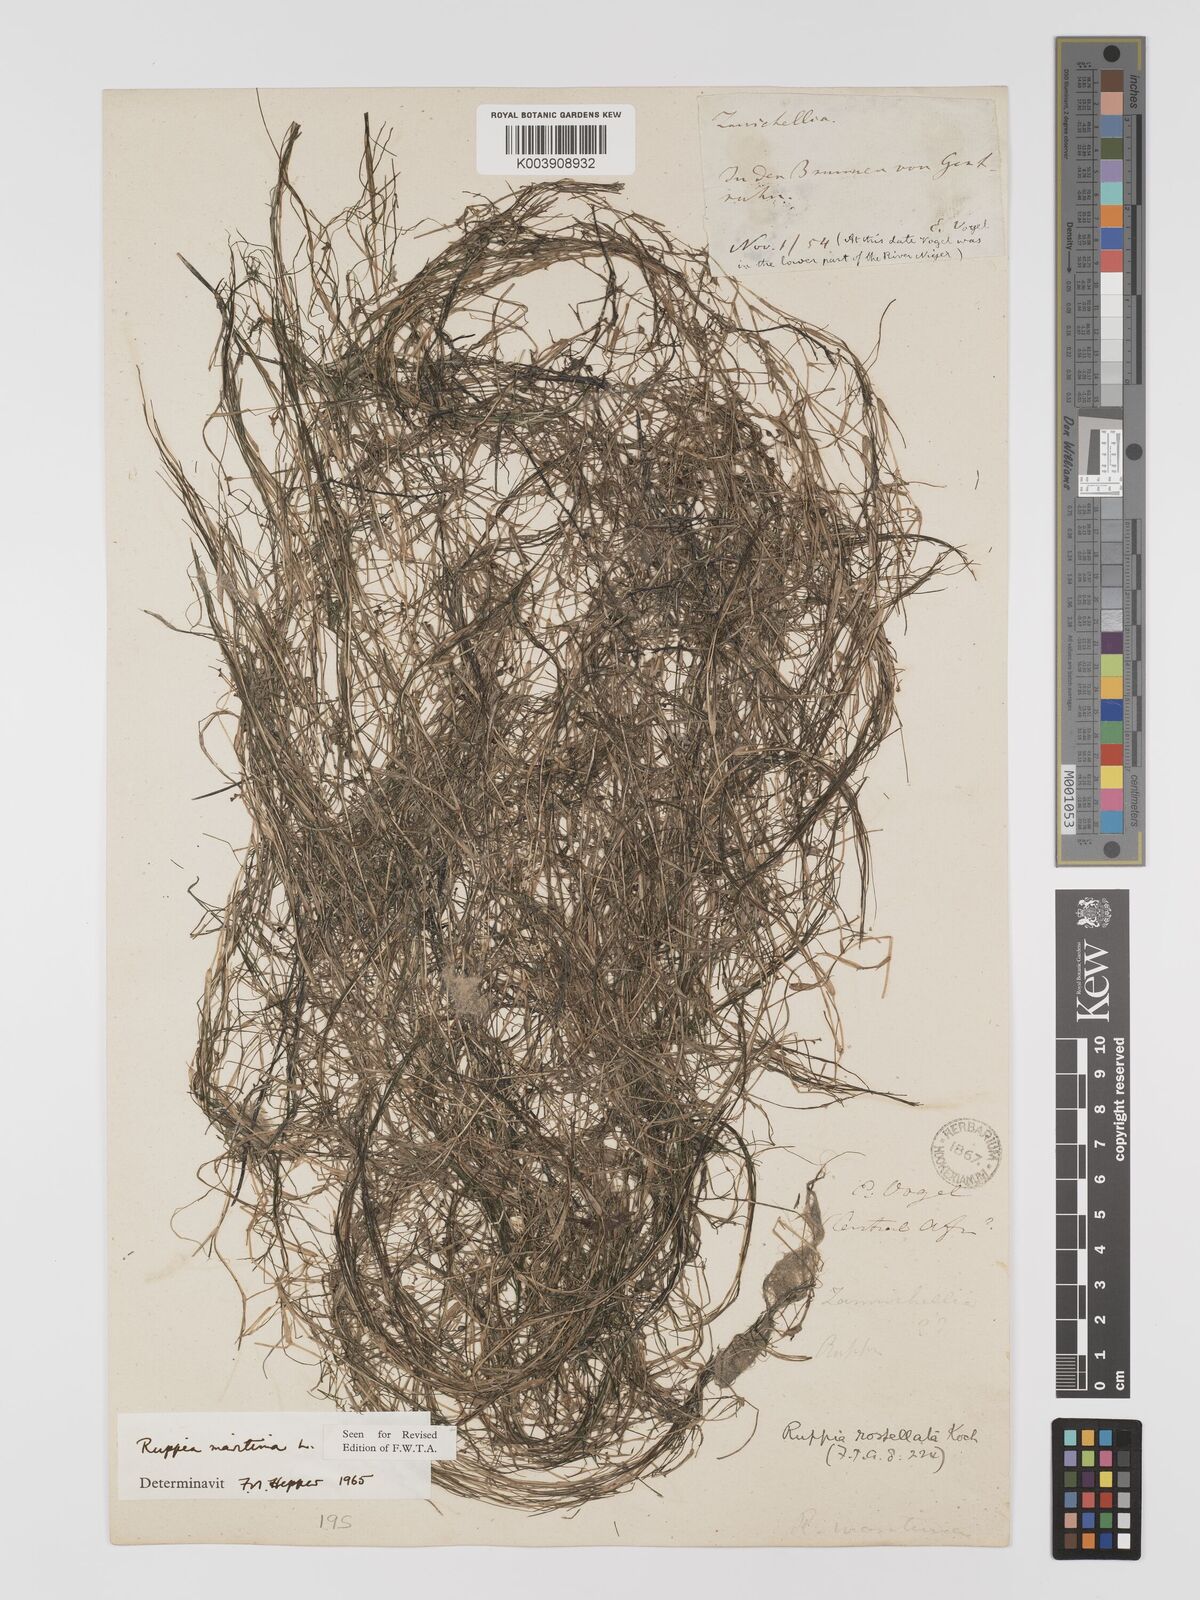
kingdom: Plantae
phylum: Tracheophyta
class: Liliopsida
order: Alismatales
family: Ruppiaceae
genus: Ruppia
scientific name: Ruppia maritima
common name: Beaked tasselweed
